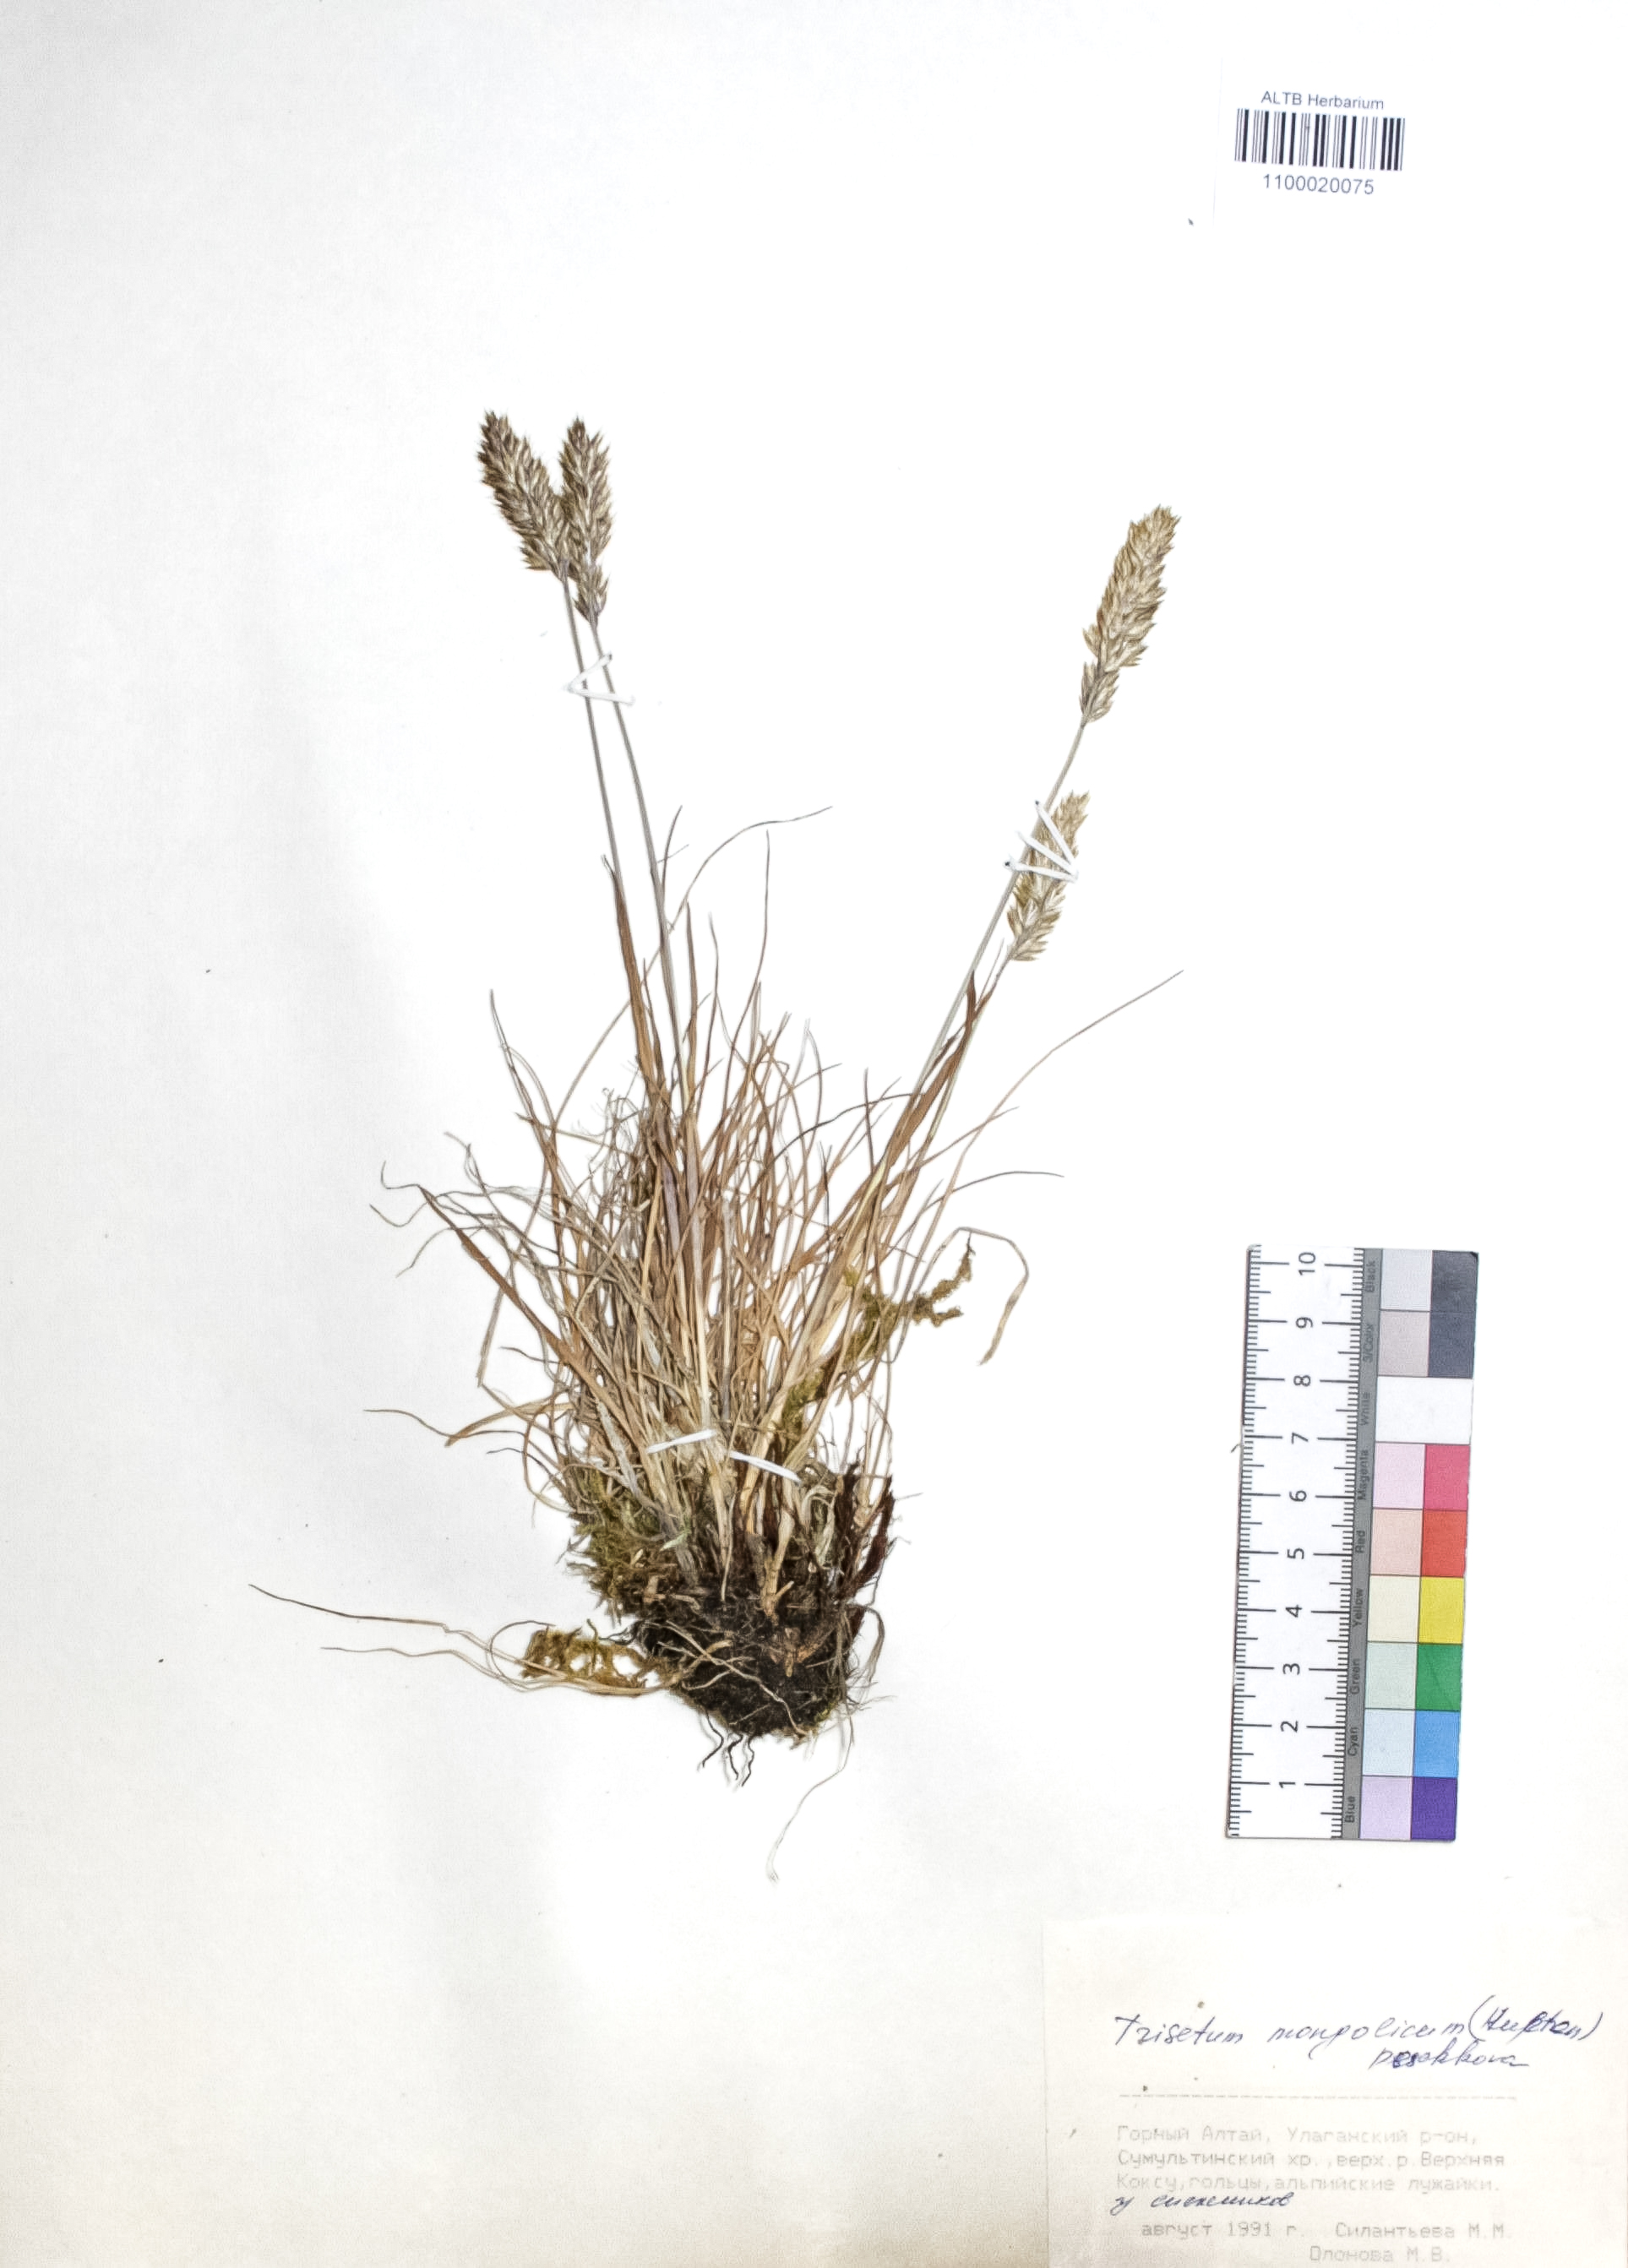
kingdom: Plantae
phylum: Tracheophyta
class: Liliopsida
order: Poales
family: Poaceae
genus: Koeleria
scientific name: Koeleria spicata
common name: Mountain trisetum
